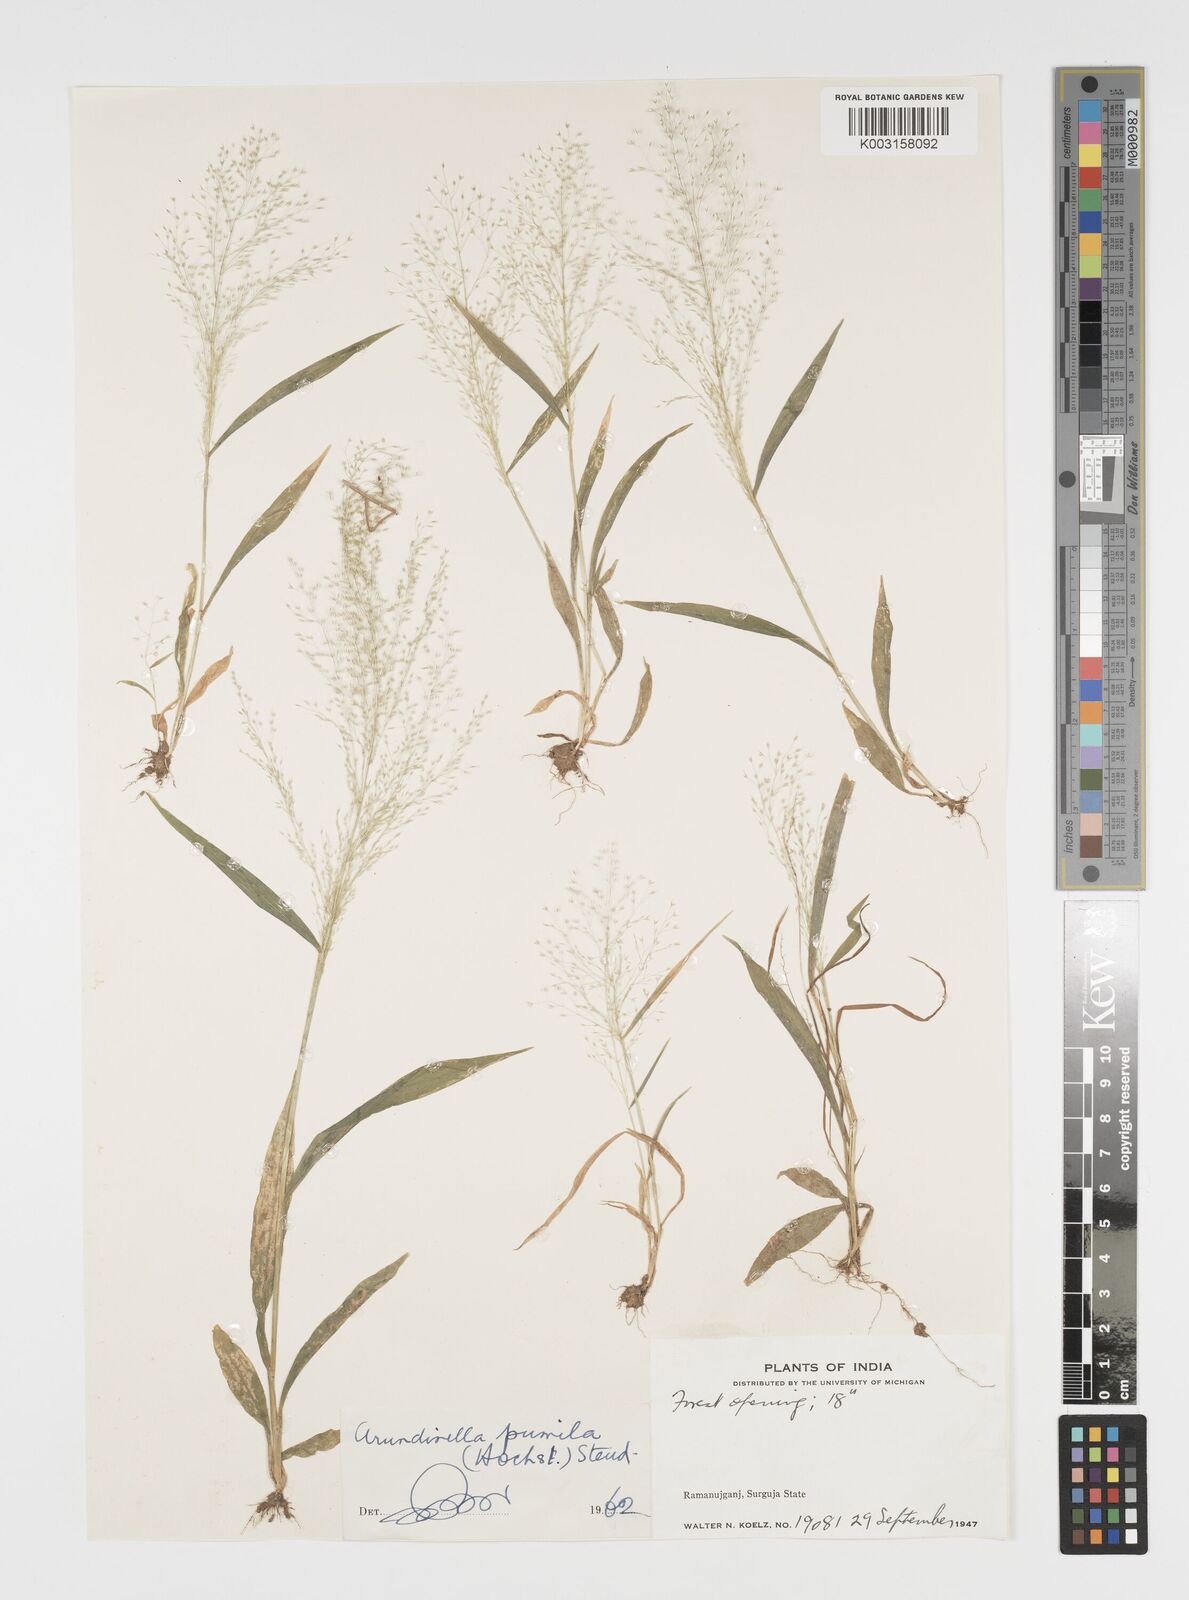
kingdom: Plantae
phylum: Tracheophyta
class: Liliopsida
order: Poales
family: Poaceae
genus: Arundinella
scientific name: Arundinella pumila
